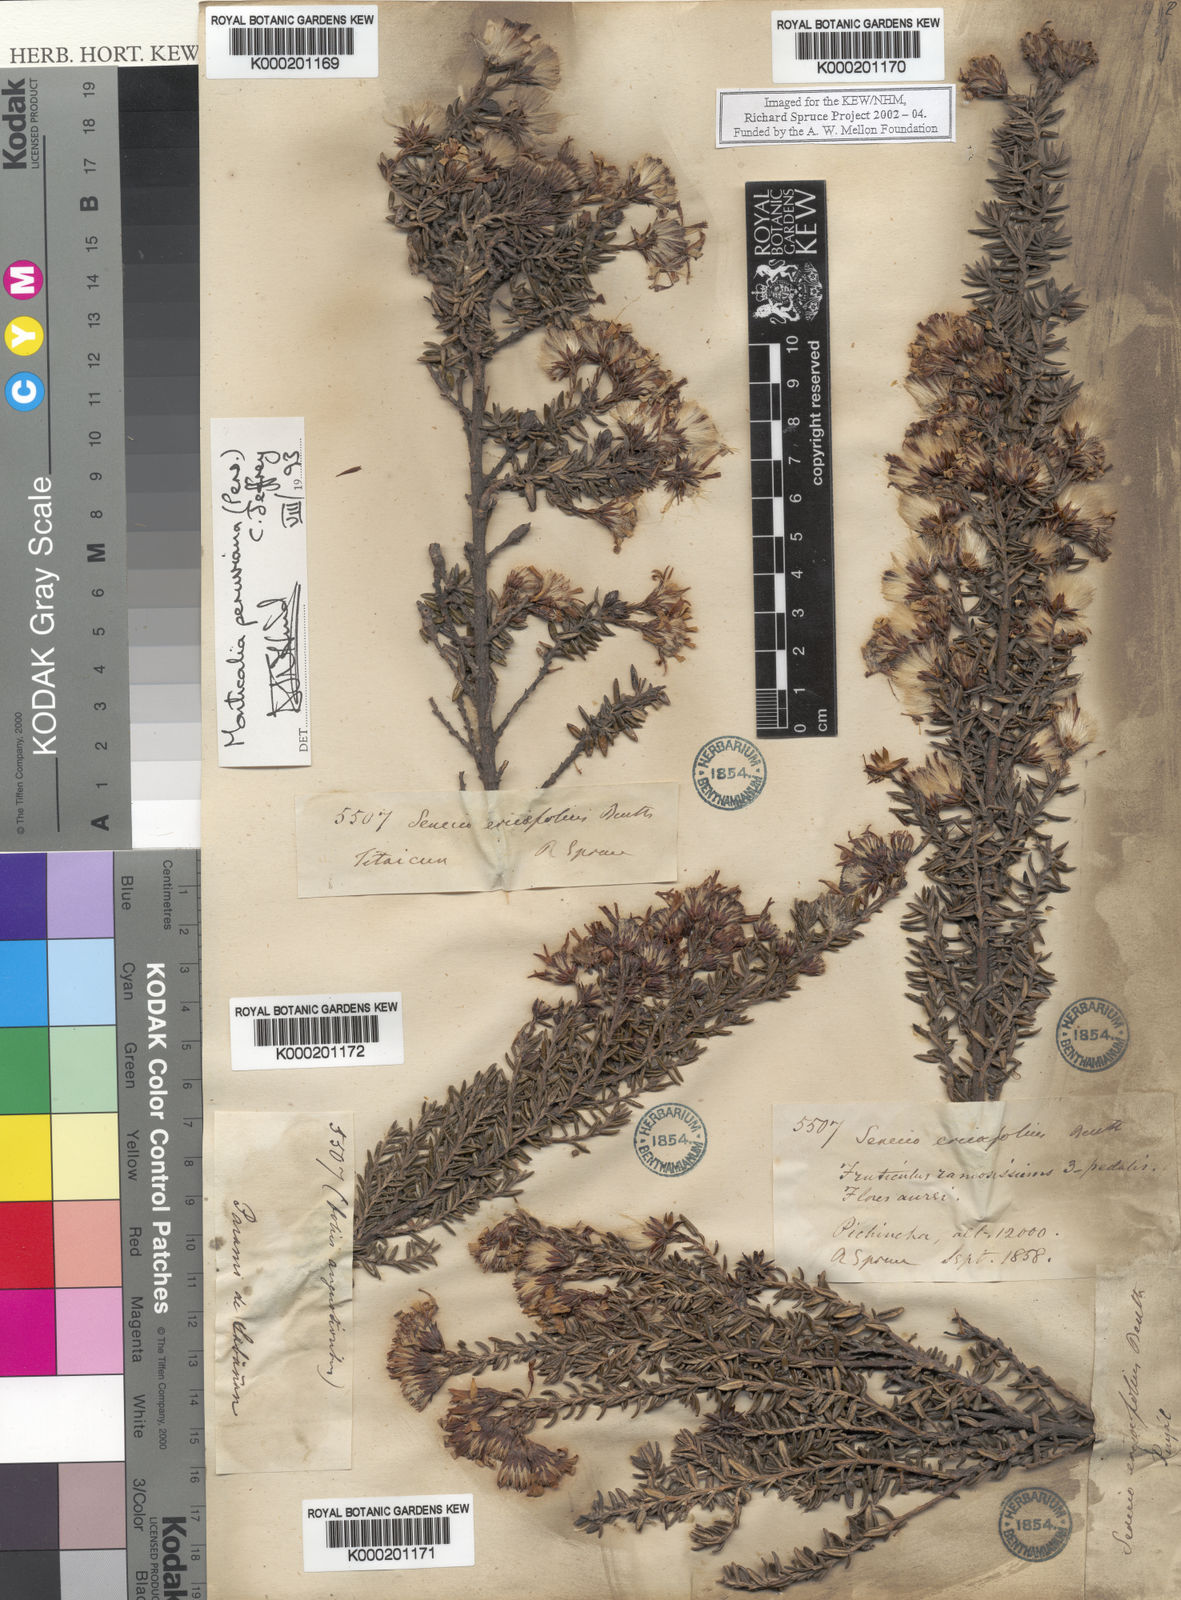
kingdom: Plantae
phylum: Tracheophyta
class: Magnoliopsida
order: Asterales
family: Asteraceae
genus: Monticalia
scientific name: Monticalia peruviana
